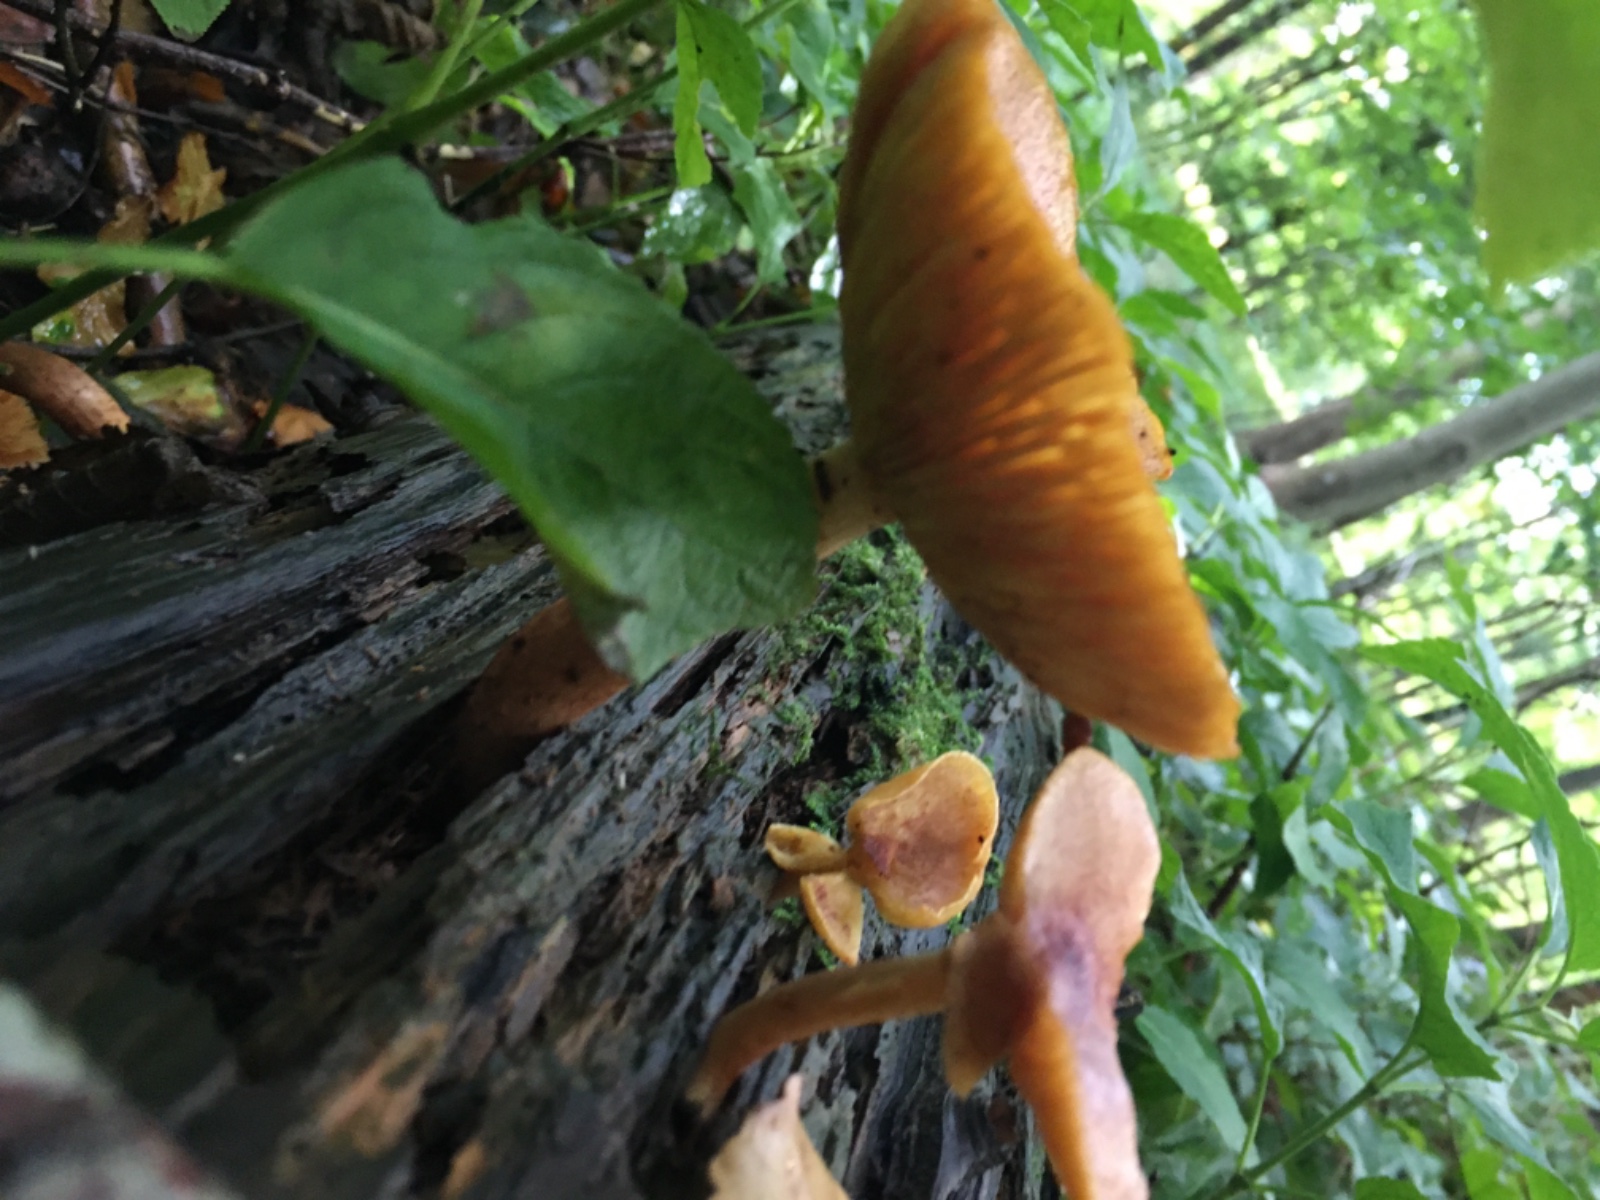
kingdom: Fungi
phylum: Basidiomycota
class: Agaricomycetes
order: Agaricales
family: Tricholomataceae
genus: Tricholomopsis
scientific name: Tricholomopsis rutilans
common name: purpur-væbnerhat
